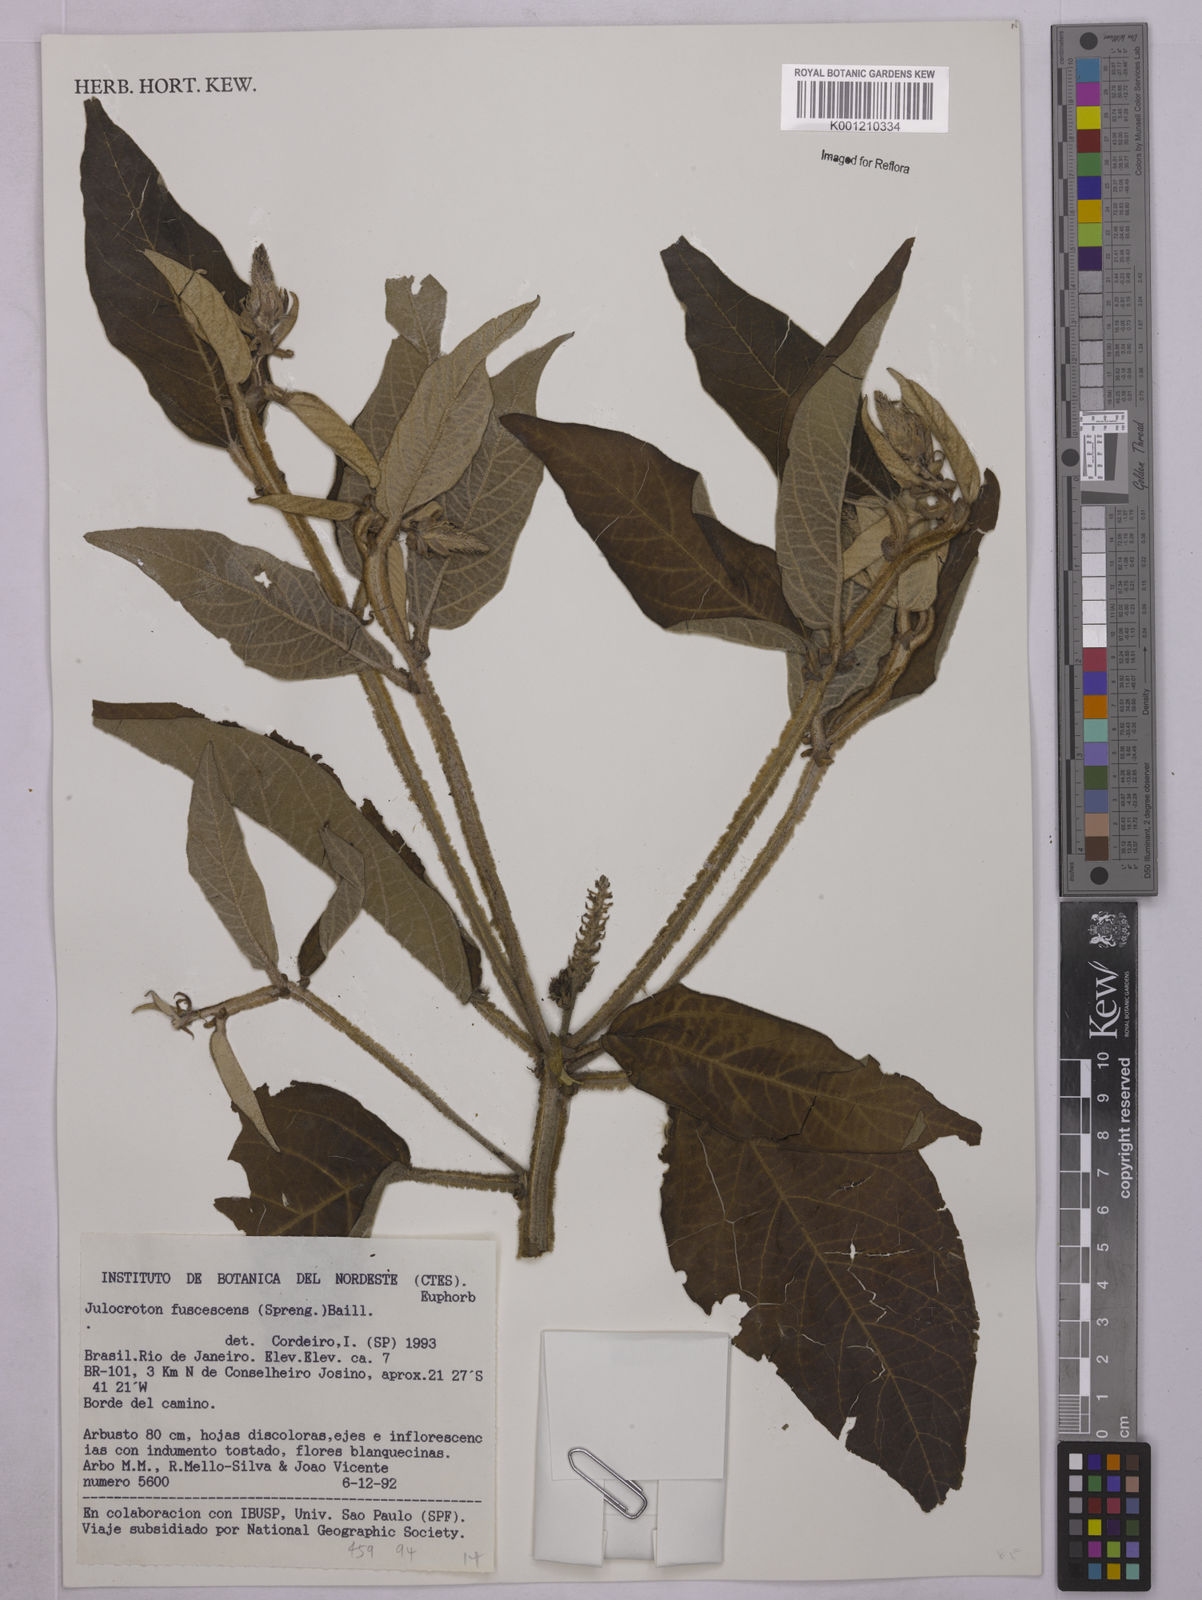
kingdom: Plantae
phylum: Tracheophyta
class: Magnoliopsida
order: Malpighiales
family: Euphorbiaceae
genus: Croton
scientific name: Croton gnaphaloides
